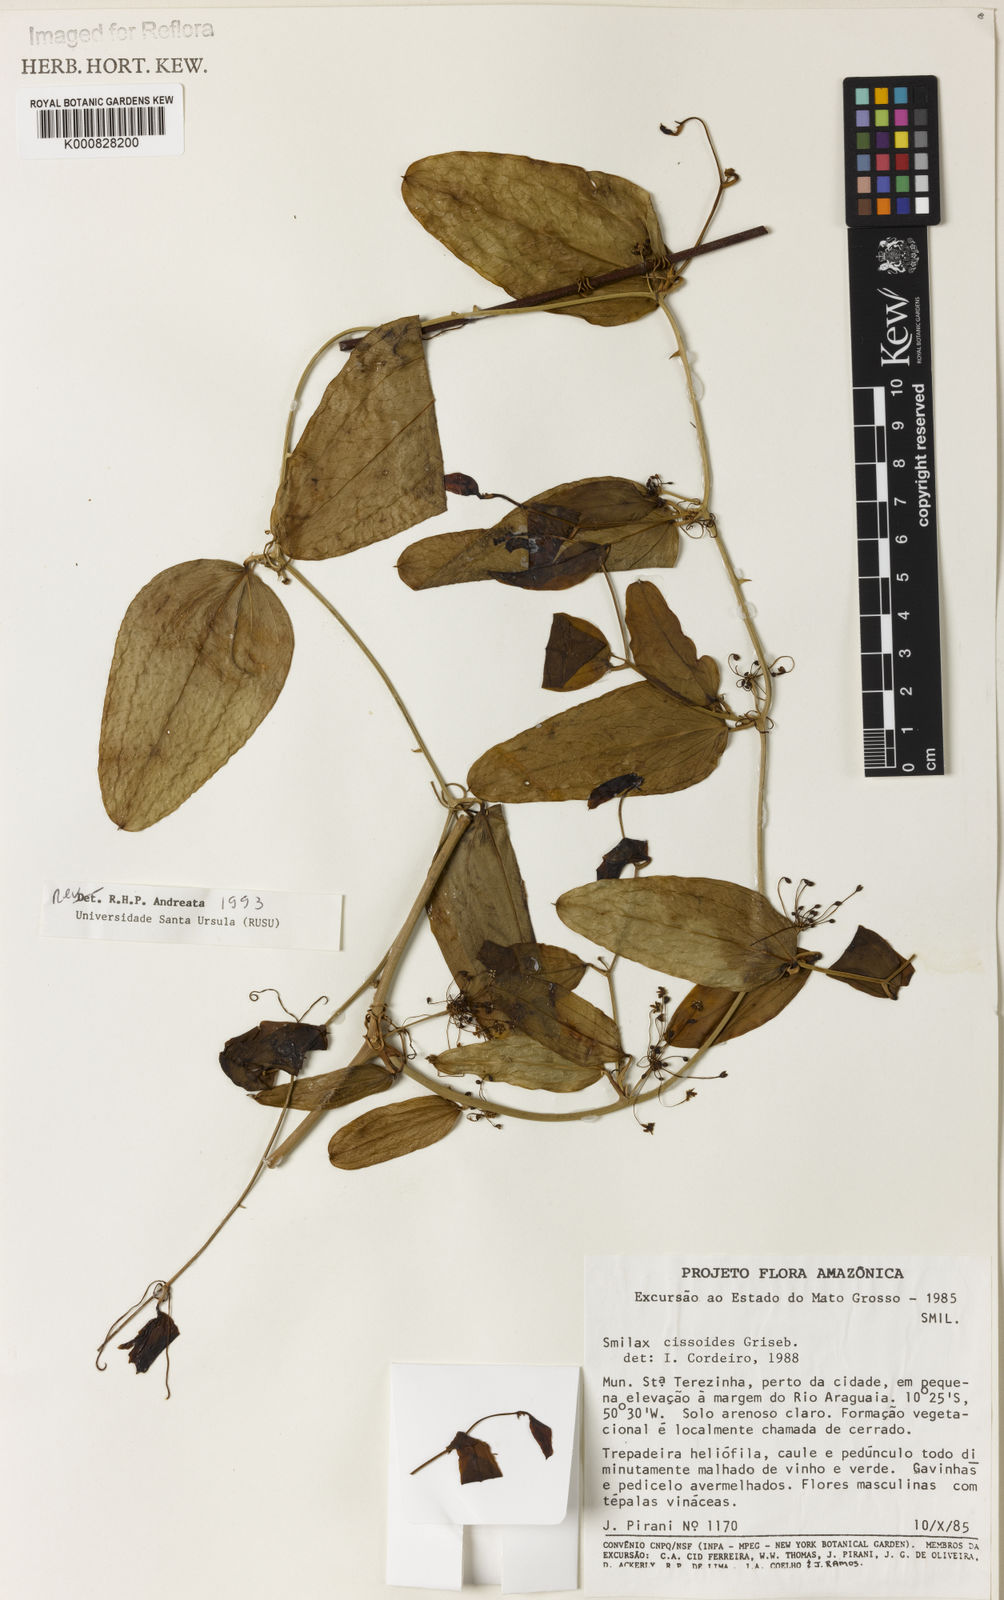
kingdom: Plantae
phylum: Tracheophyta
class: Liliopsida
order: Liliales
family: Smilacaceae
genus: Smilax
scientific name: Smilax
